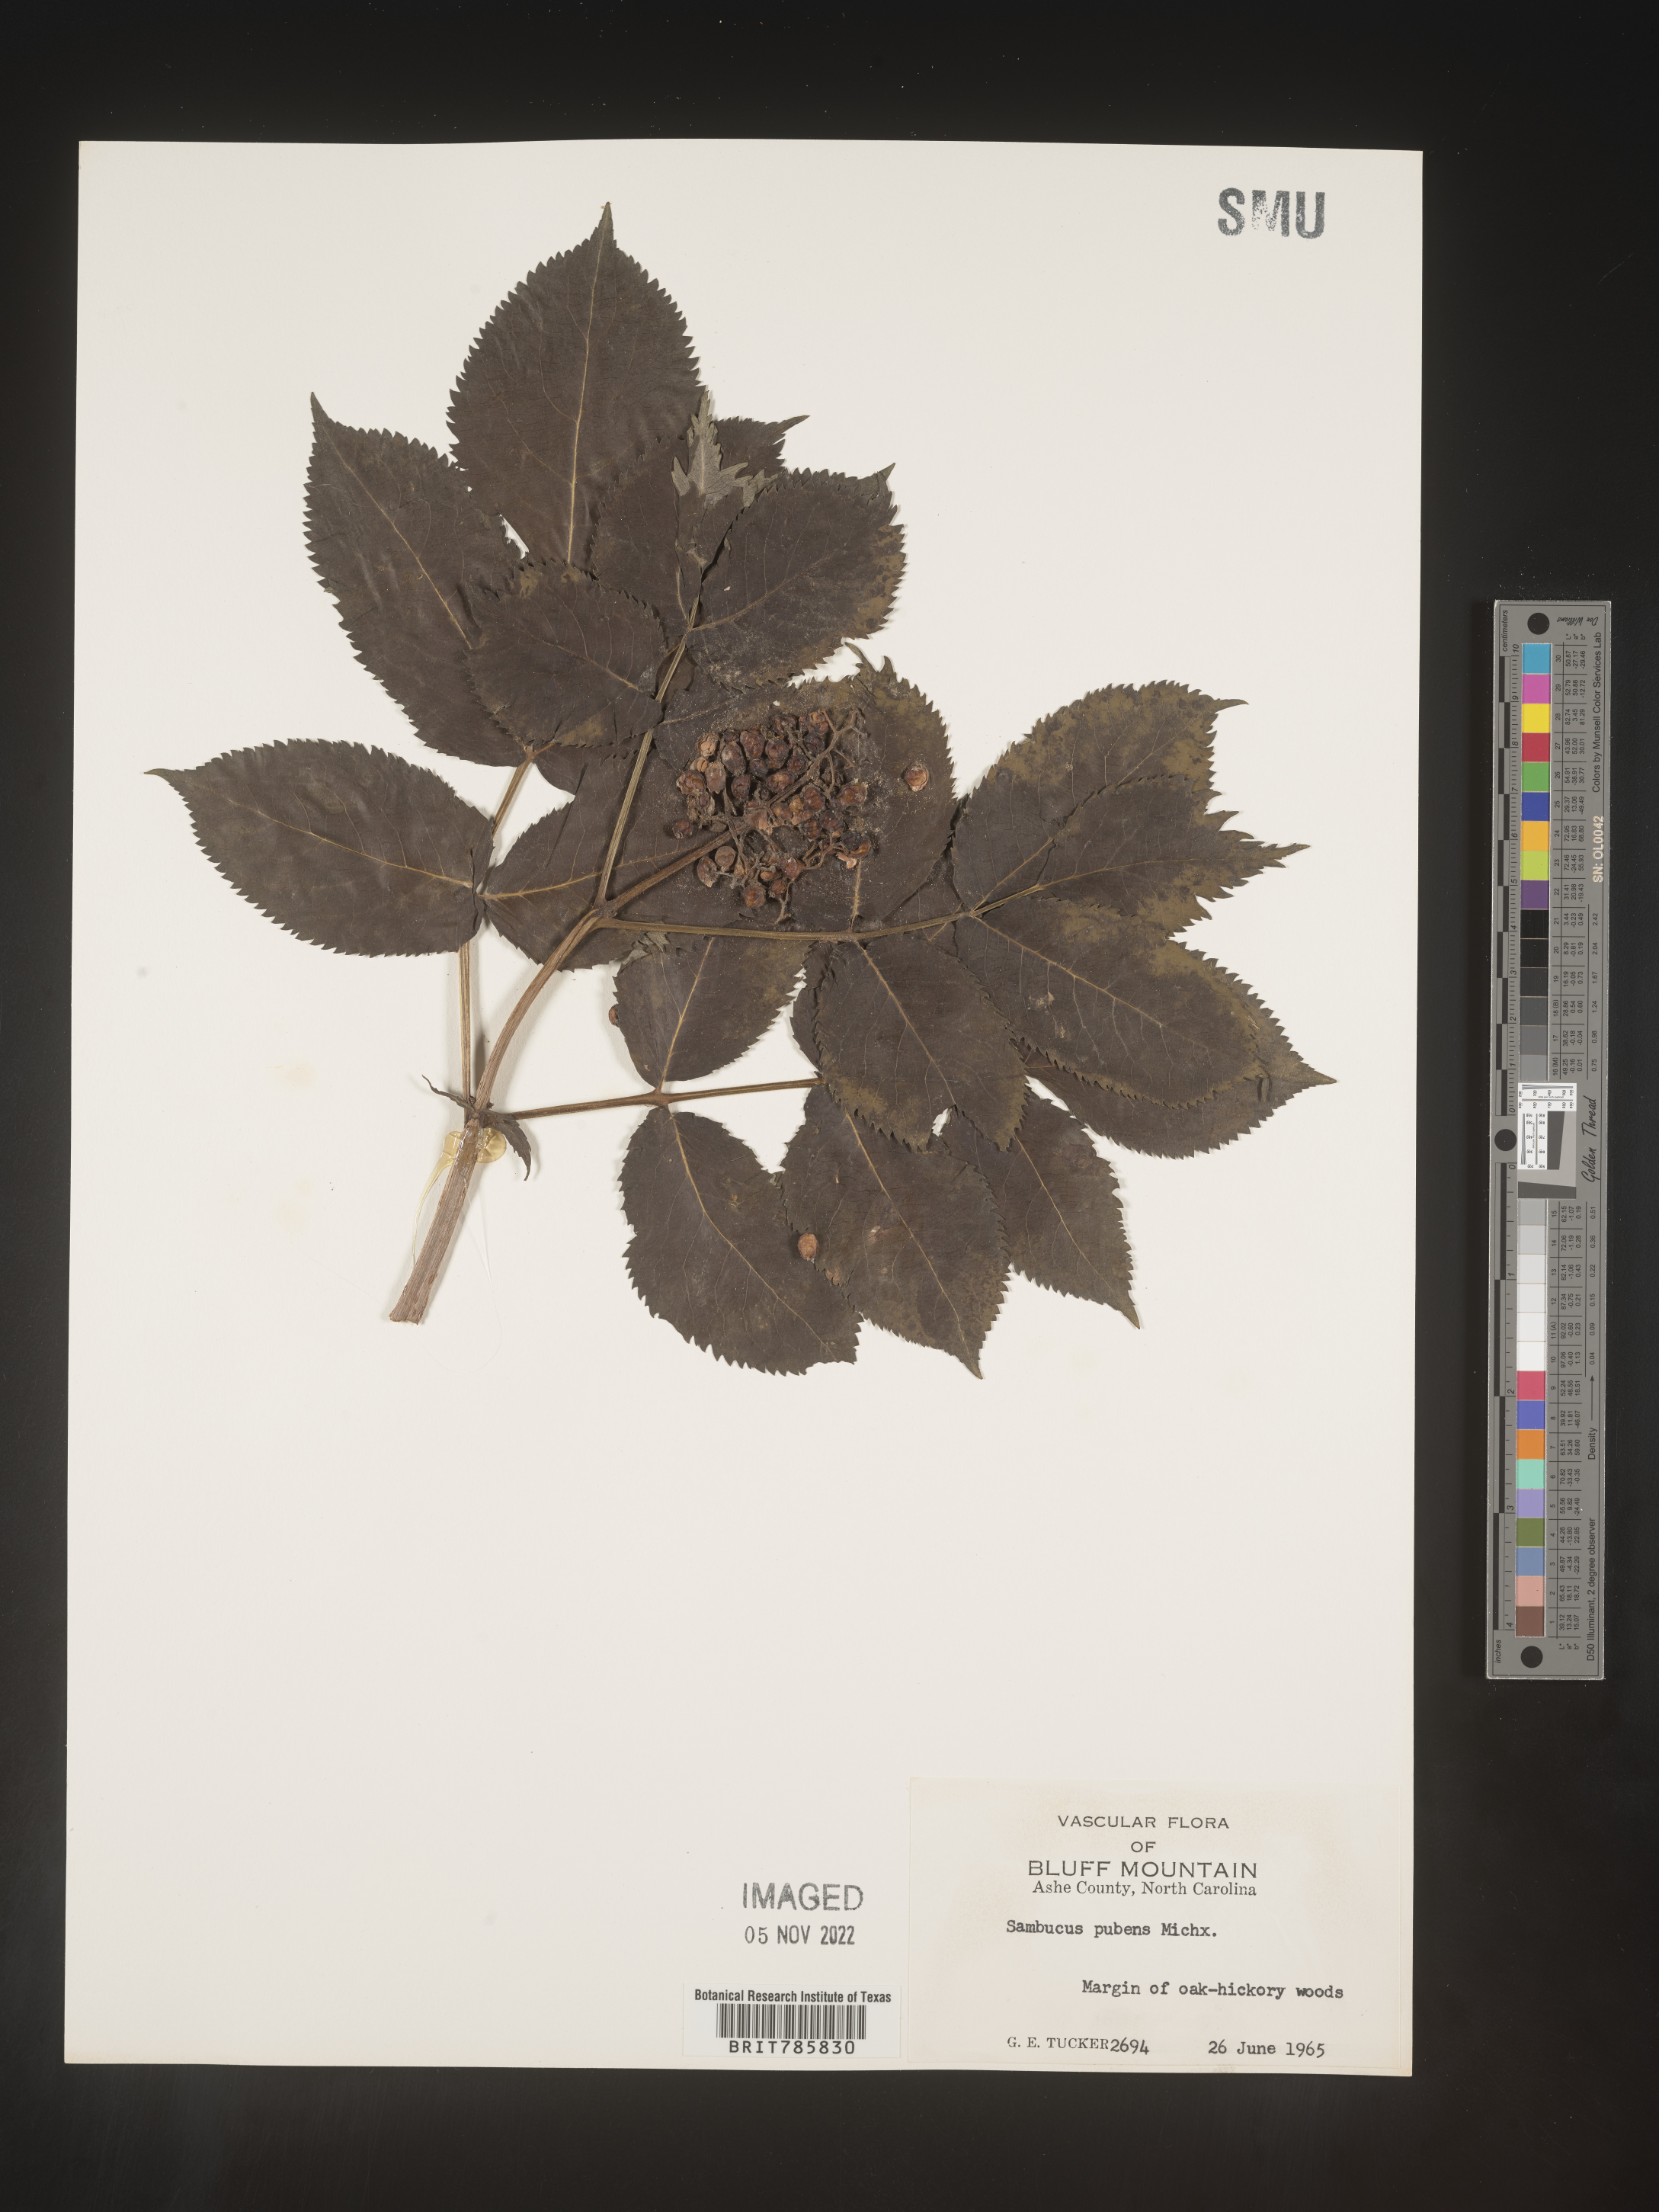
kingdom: Plantae
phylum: Tracheophyta
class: Magnoliopsida
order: Dipsacales
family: Viburnaceae
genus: Sambucus
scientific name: Sambucus
